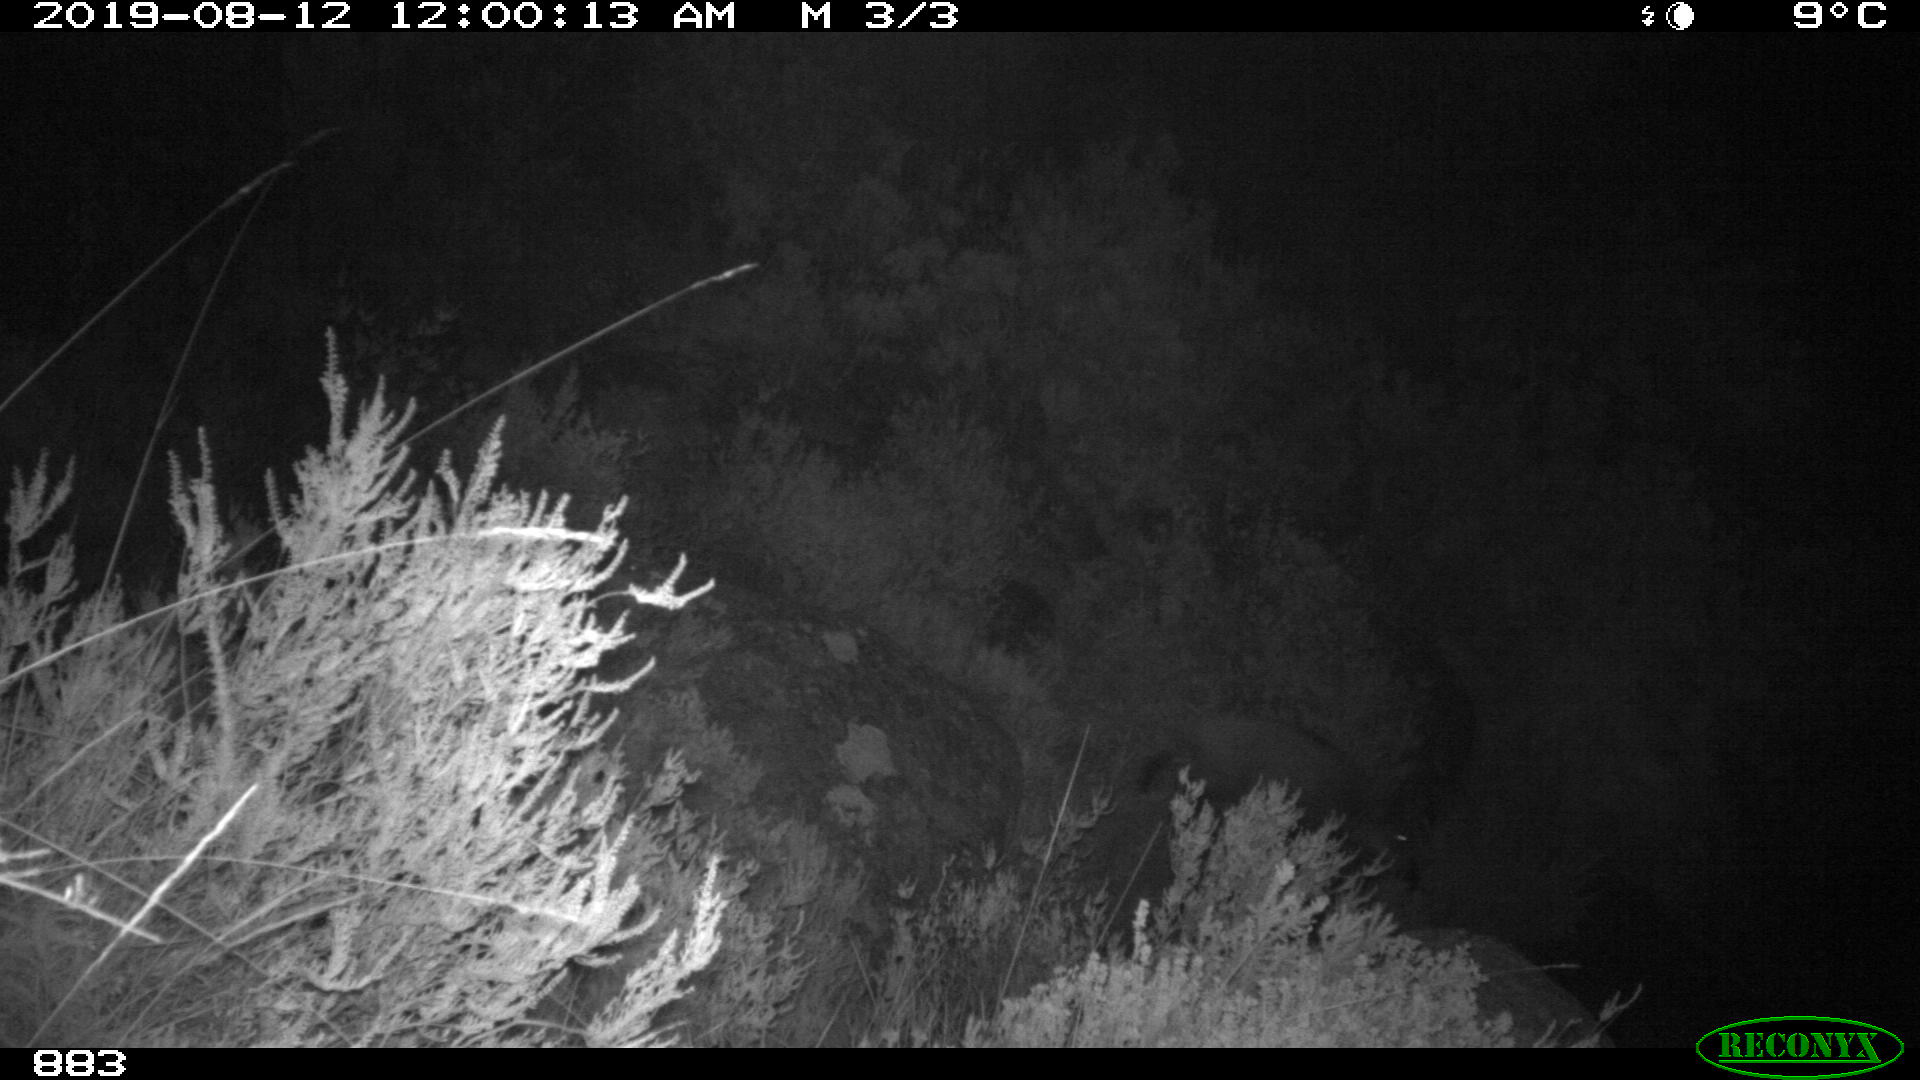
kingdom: Animalia
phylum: Chordata
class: Mammalia
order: Artiodactyla
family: Suidae
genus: Sus
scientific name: Sus scrofa
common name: Wild boar
